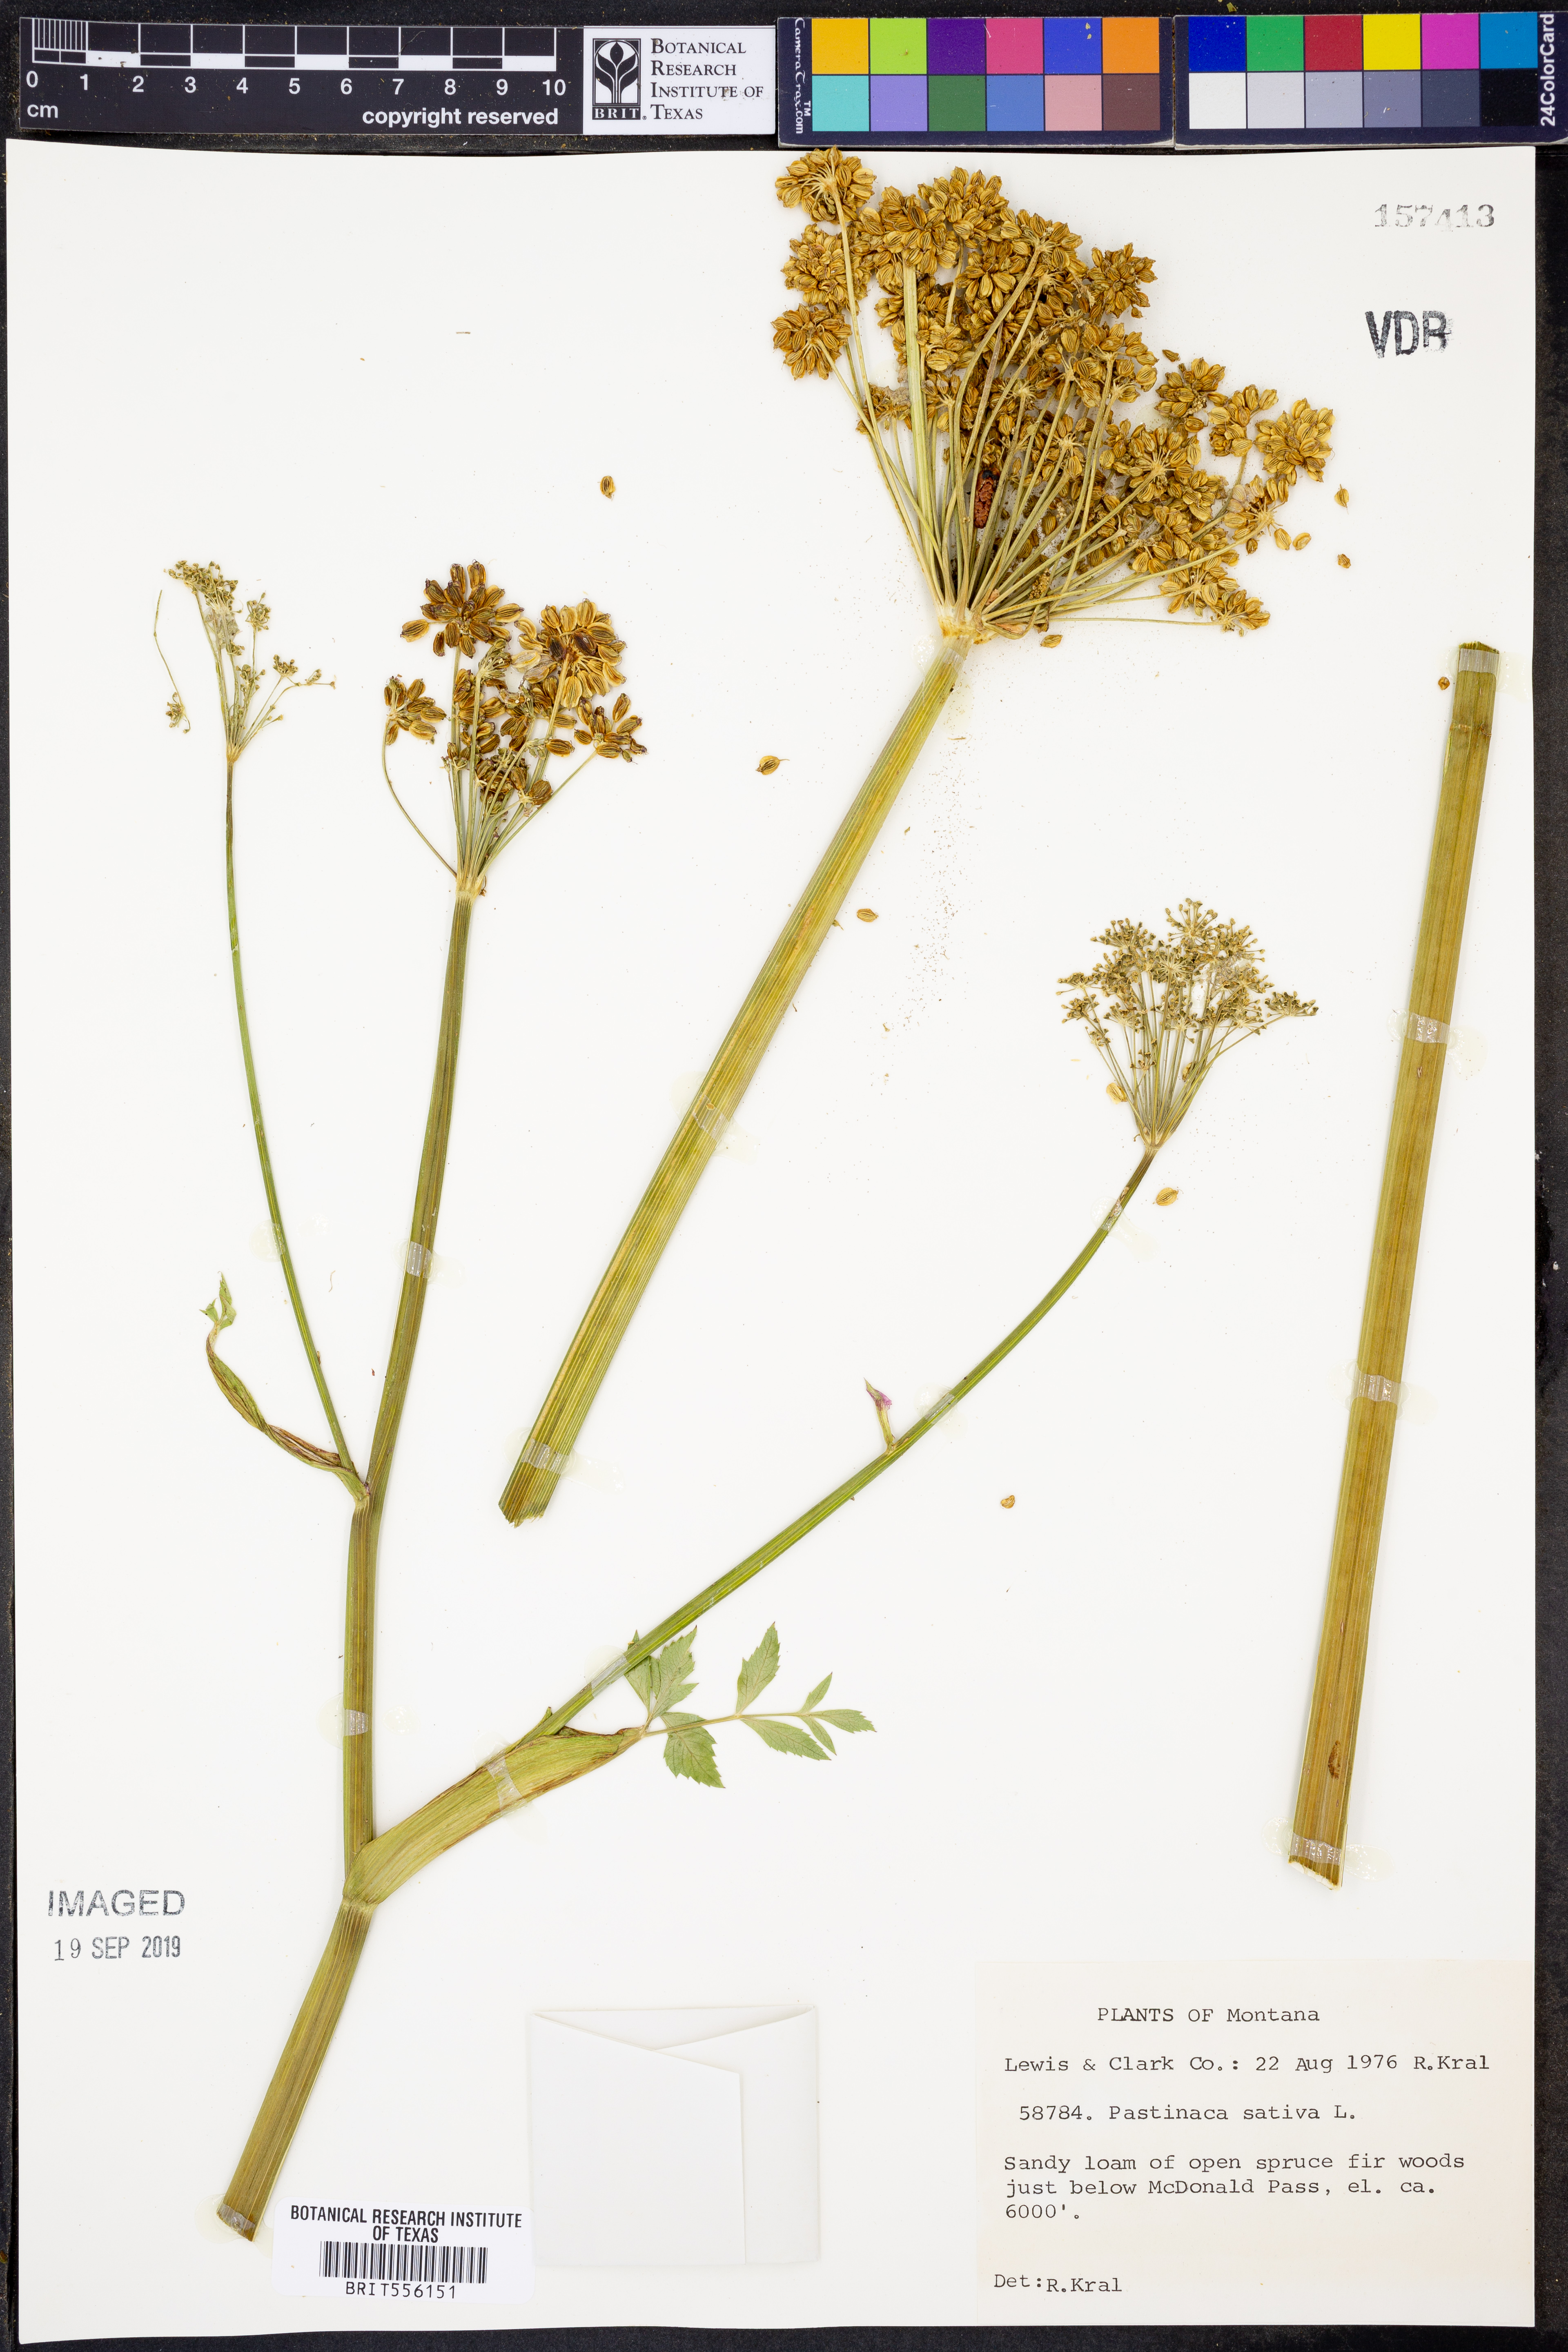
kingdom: Plantae
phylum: Tracheophyta
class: Magnoliopsida
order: Apiales
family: Apiaceae
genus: Pastinaca
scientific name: Pastinaca sativa
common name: Wild parsnip
